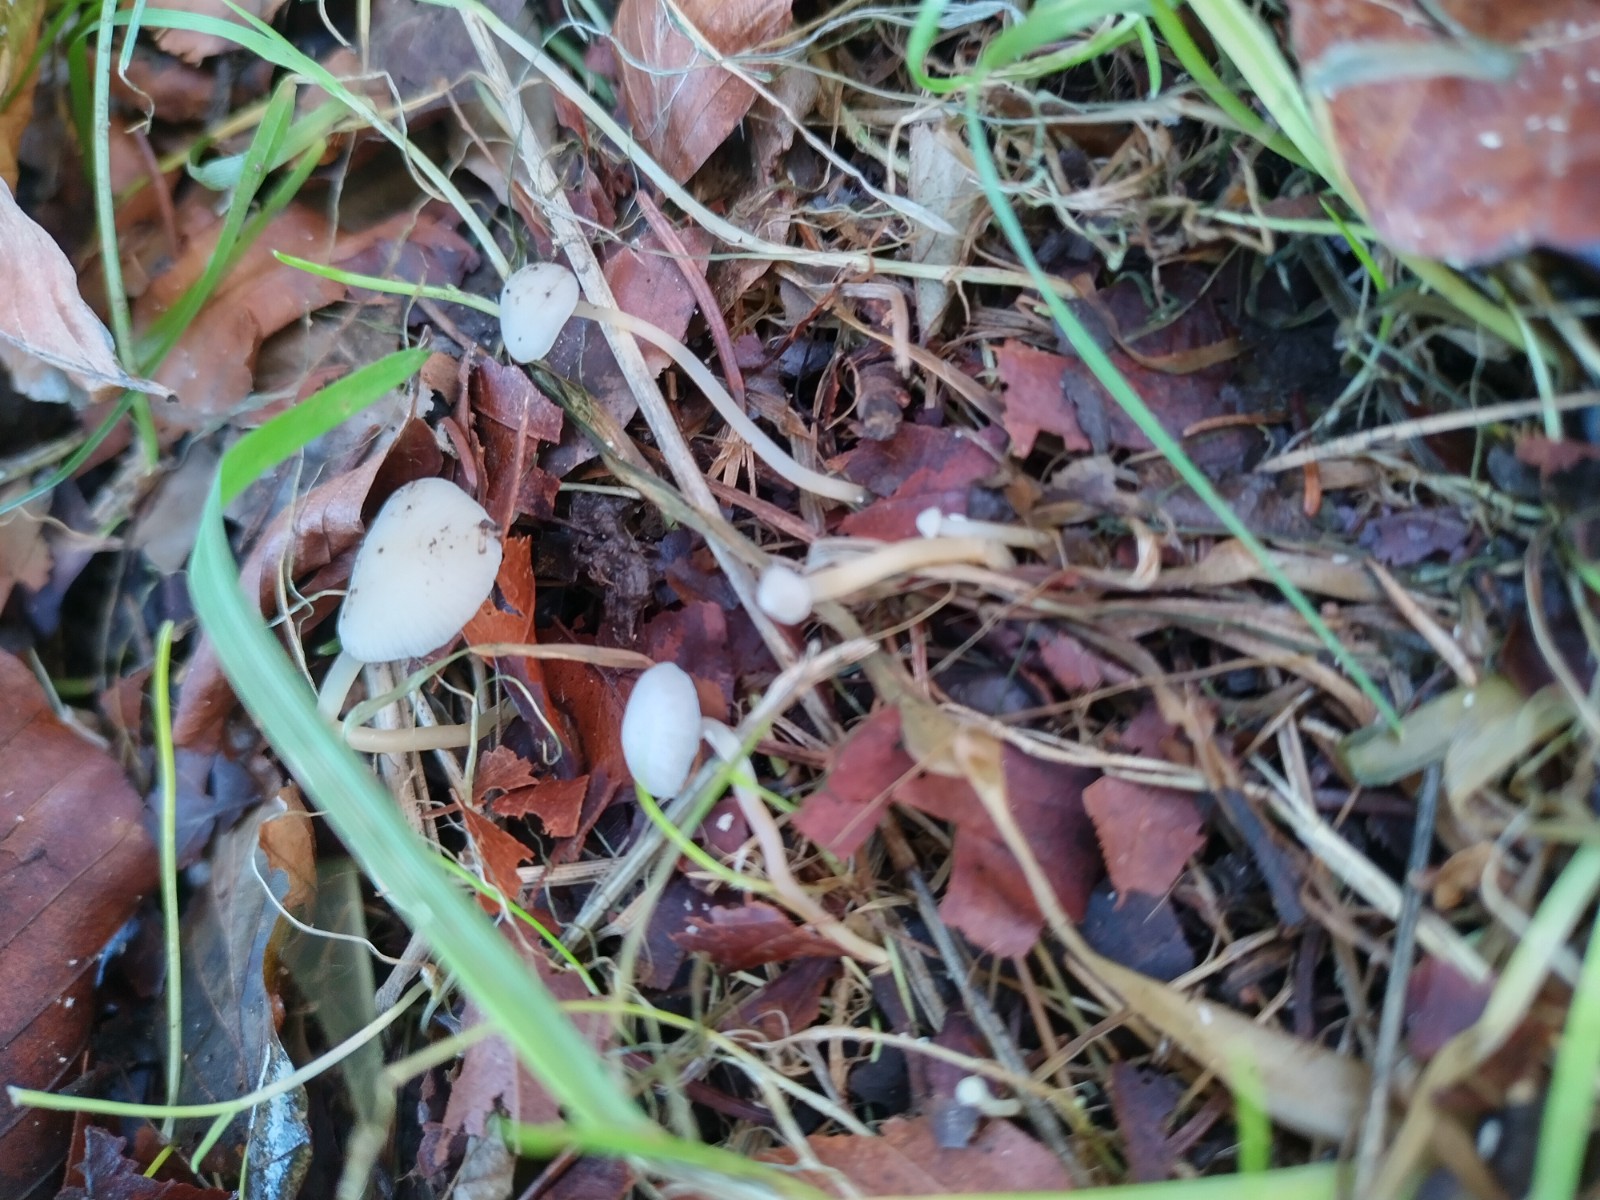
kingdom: Fungi
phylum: Basidiomycota
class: Agaricomycetes
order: Agaricales
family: Marasmiaceae
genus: Baeospora
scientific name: Baeospora myosura
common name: koglebruskhat
